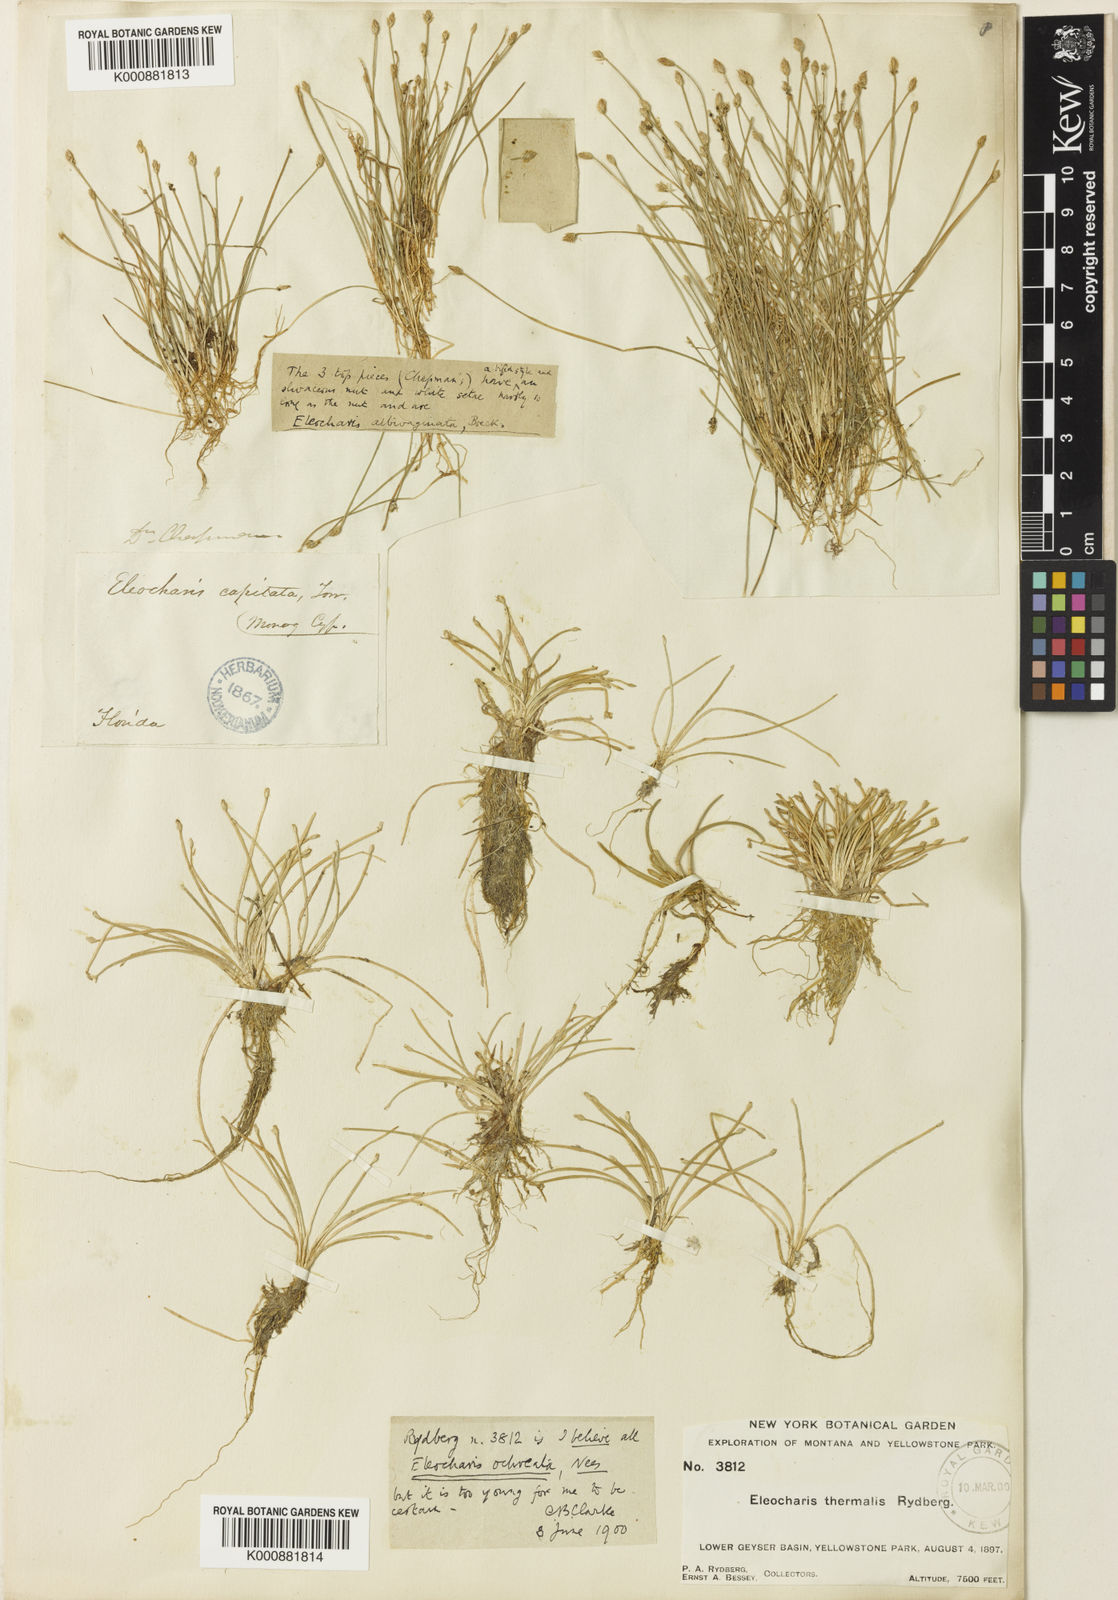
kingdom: Plantae
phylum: Tracheophyta
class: Liliopsida
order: Poales
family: Cyperaceae
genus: Eleocharis
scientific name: Eleocharis sellowiana
